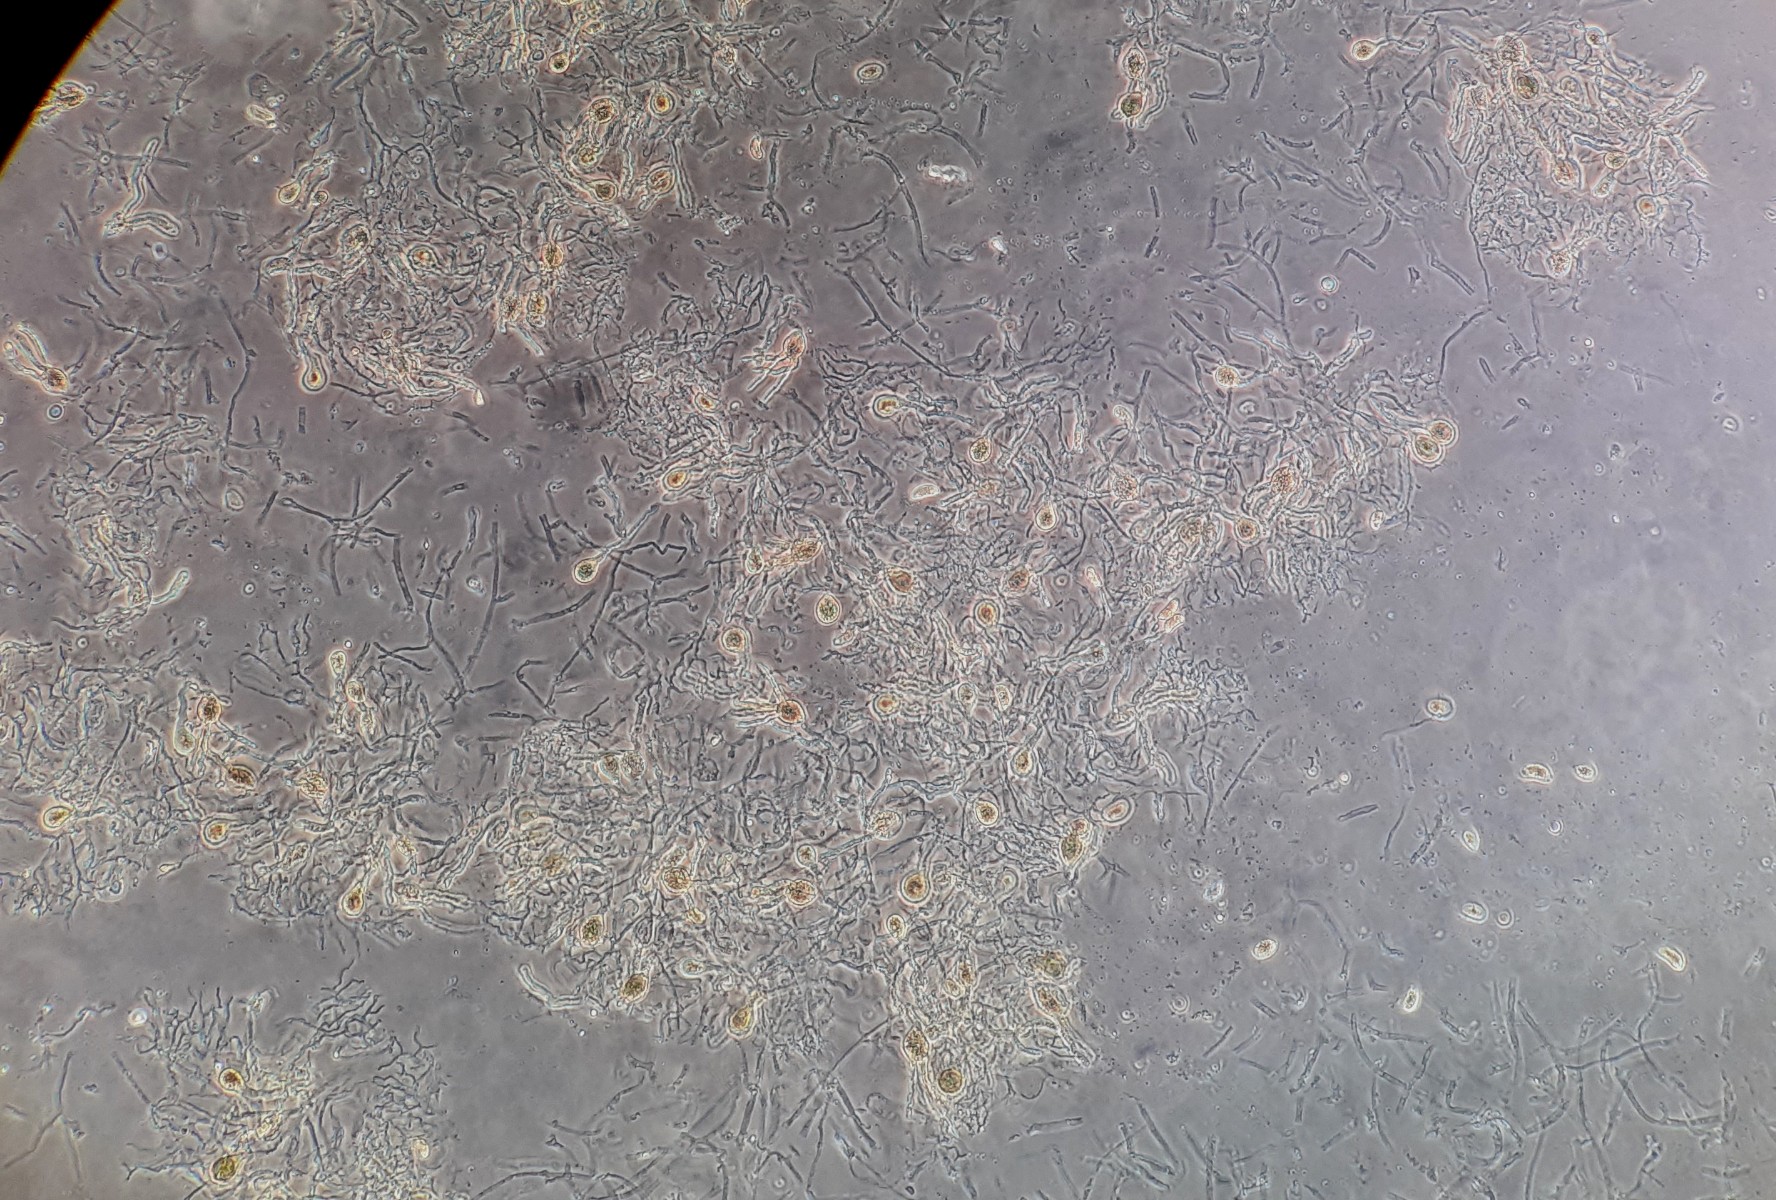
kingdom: Fungi
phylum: Basidiomycota
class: Agaricomycetes
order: Auriculariales
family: Hyaloriaceae
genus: Myxarium
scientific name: Myxarium hyalinum
